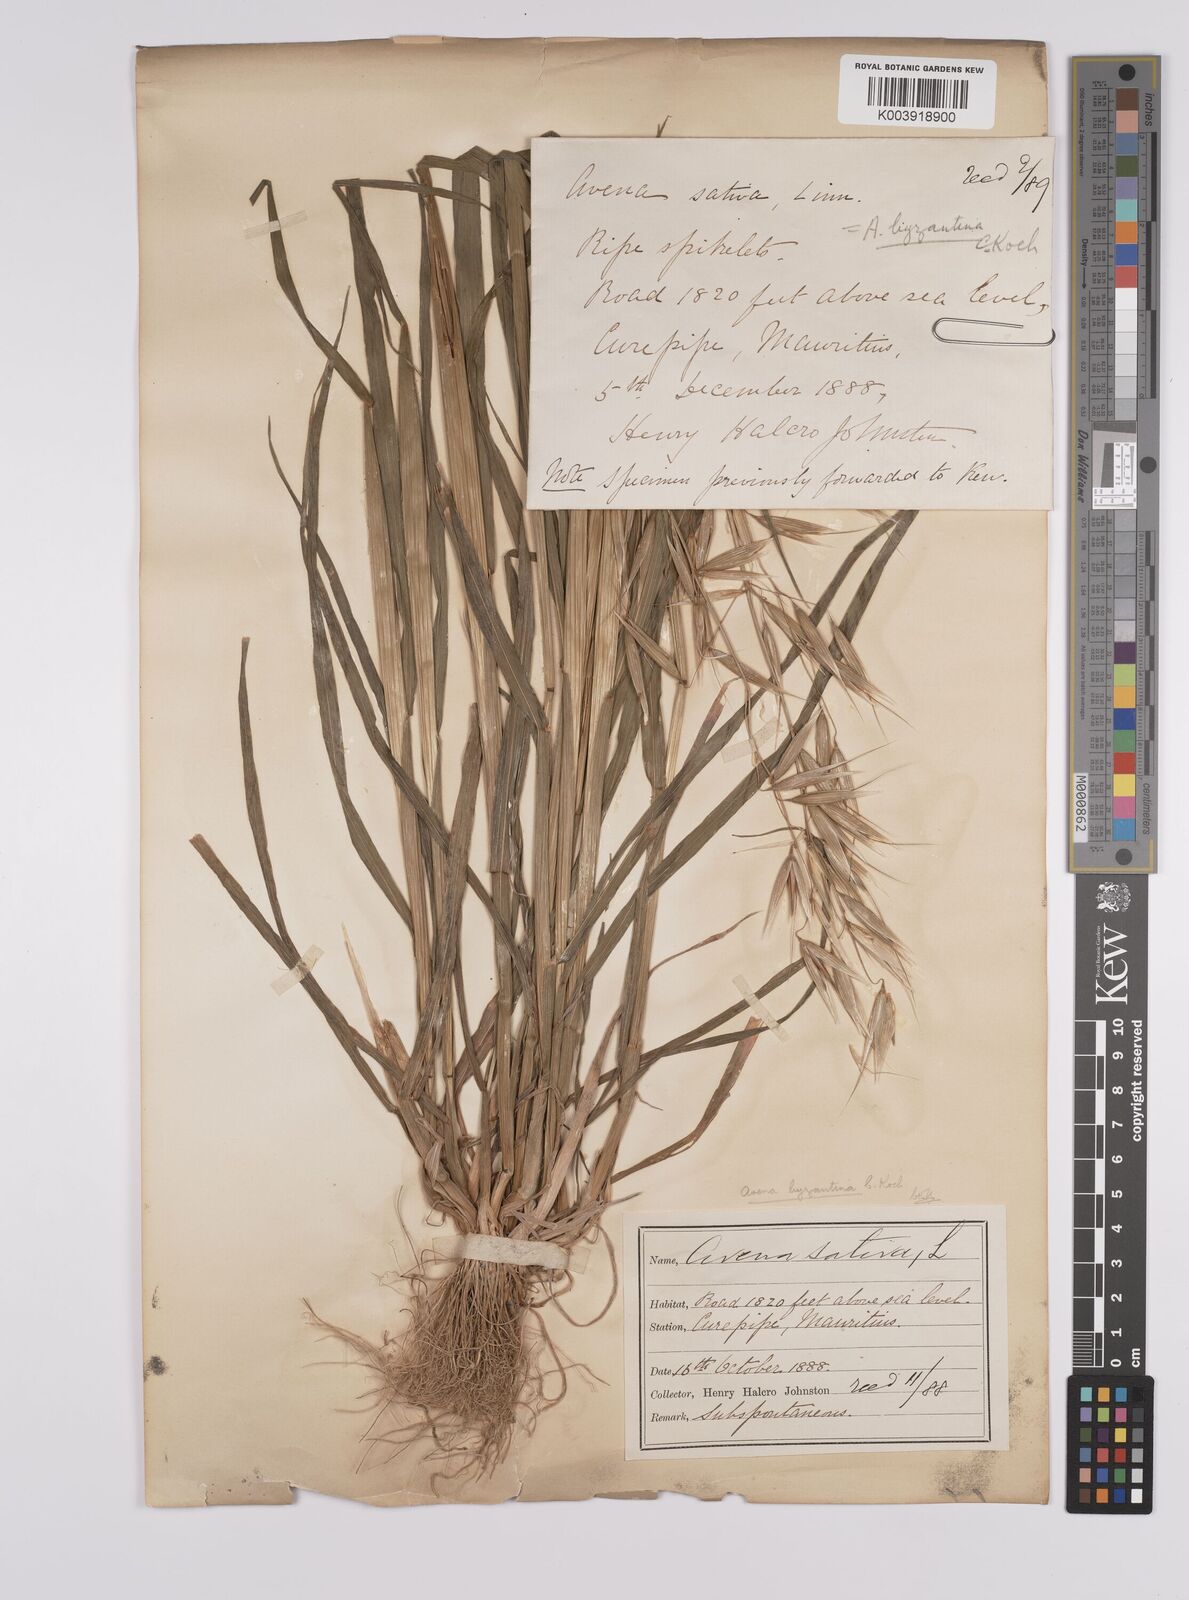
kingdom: Plantae
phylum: Tracheophyta
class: Liliopsida
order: Poales
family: Poaceae
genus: Avena
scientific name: Avena byzantina
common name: Algerian oat
